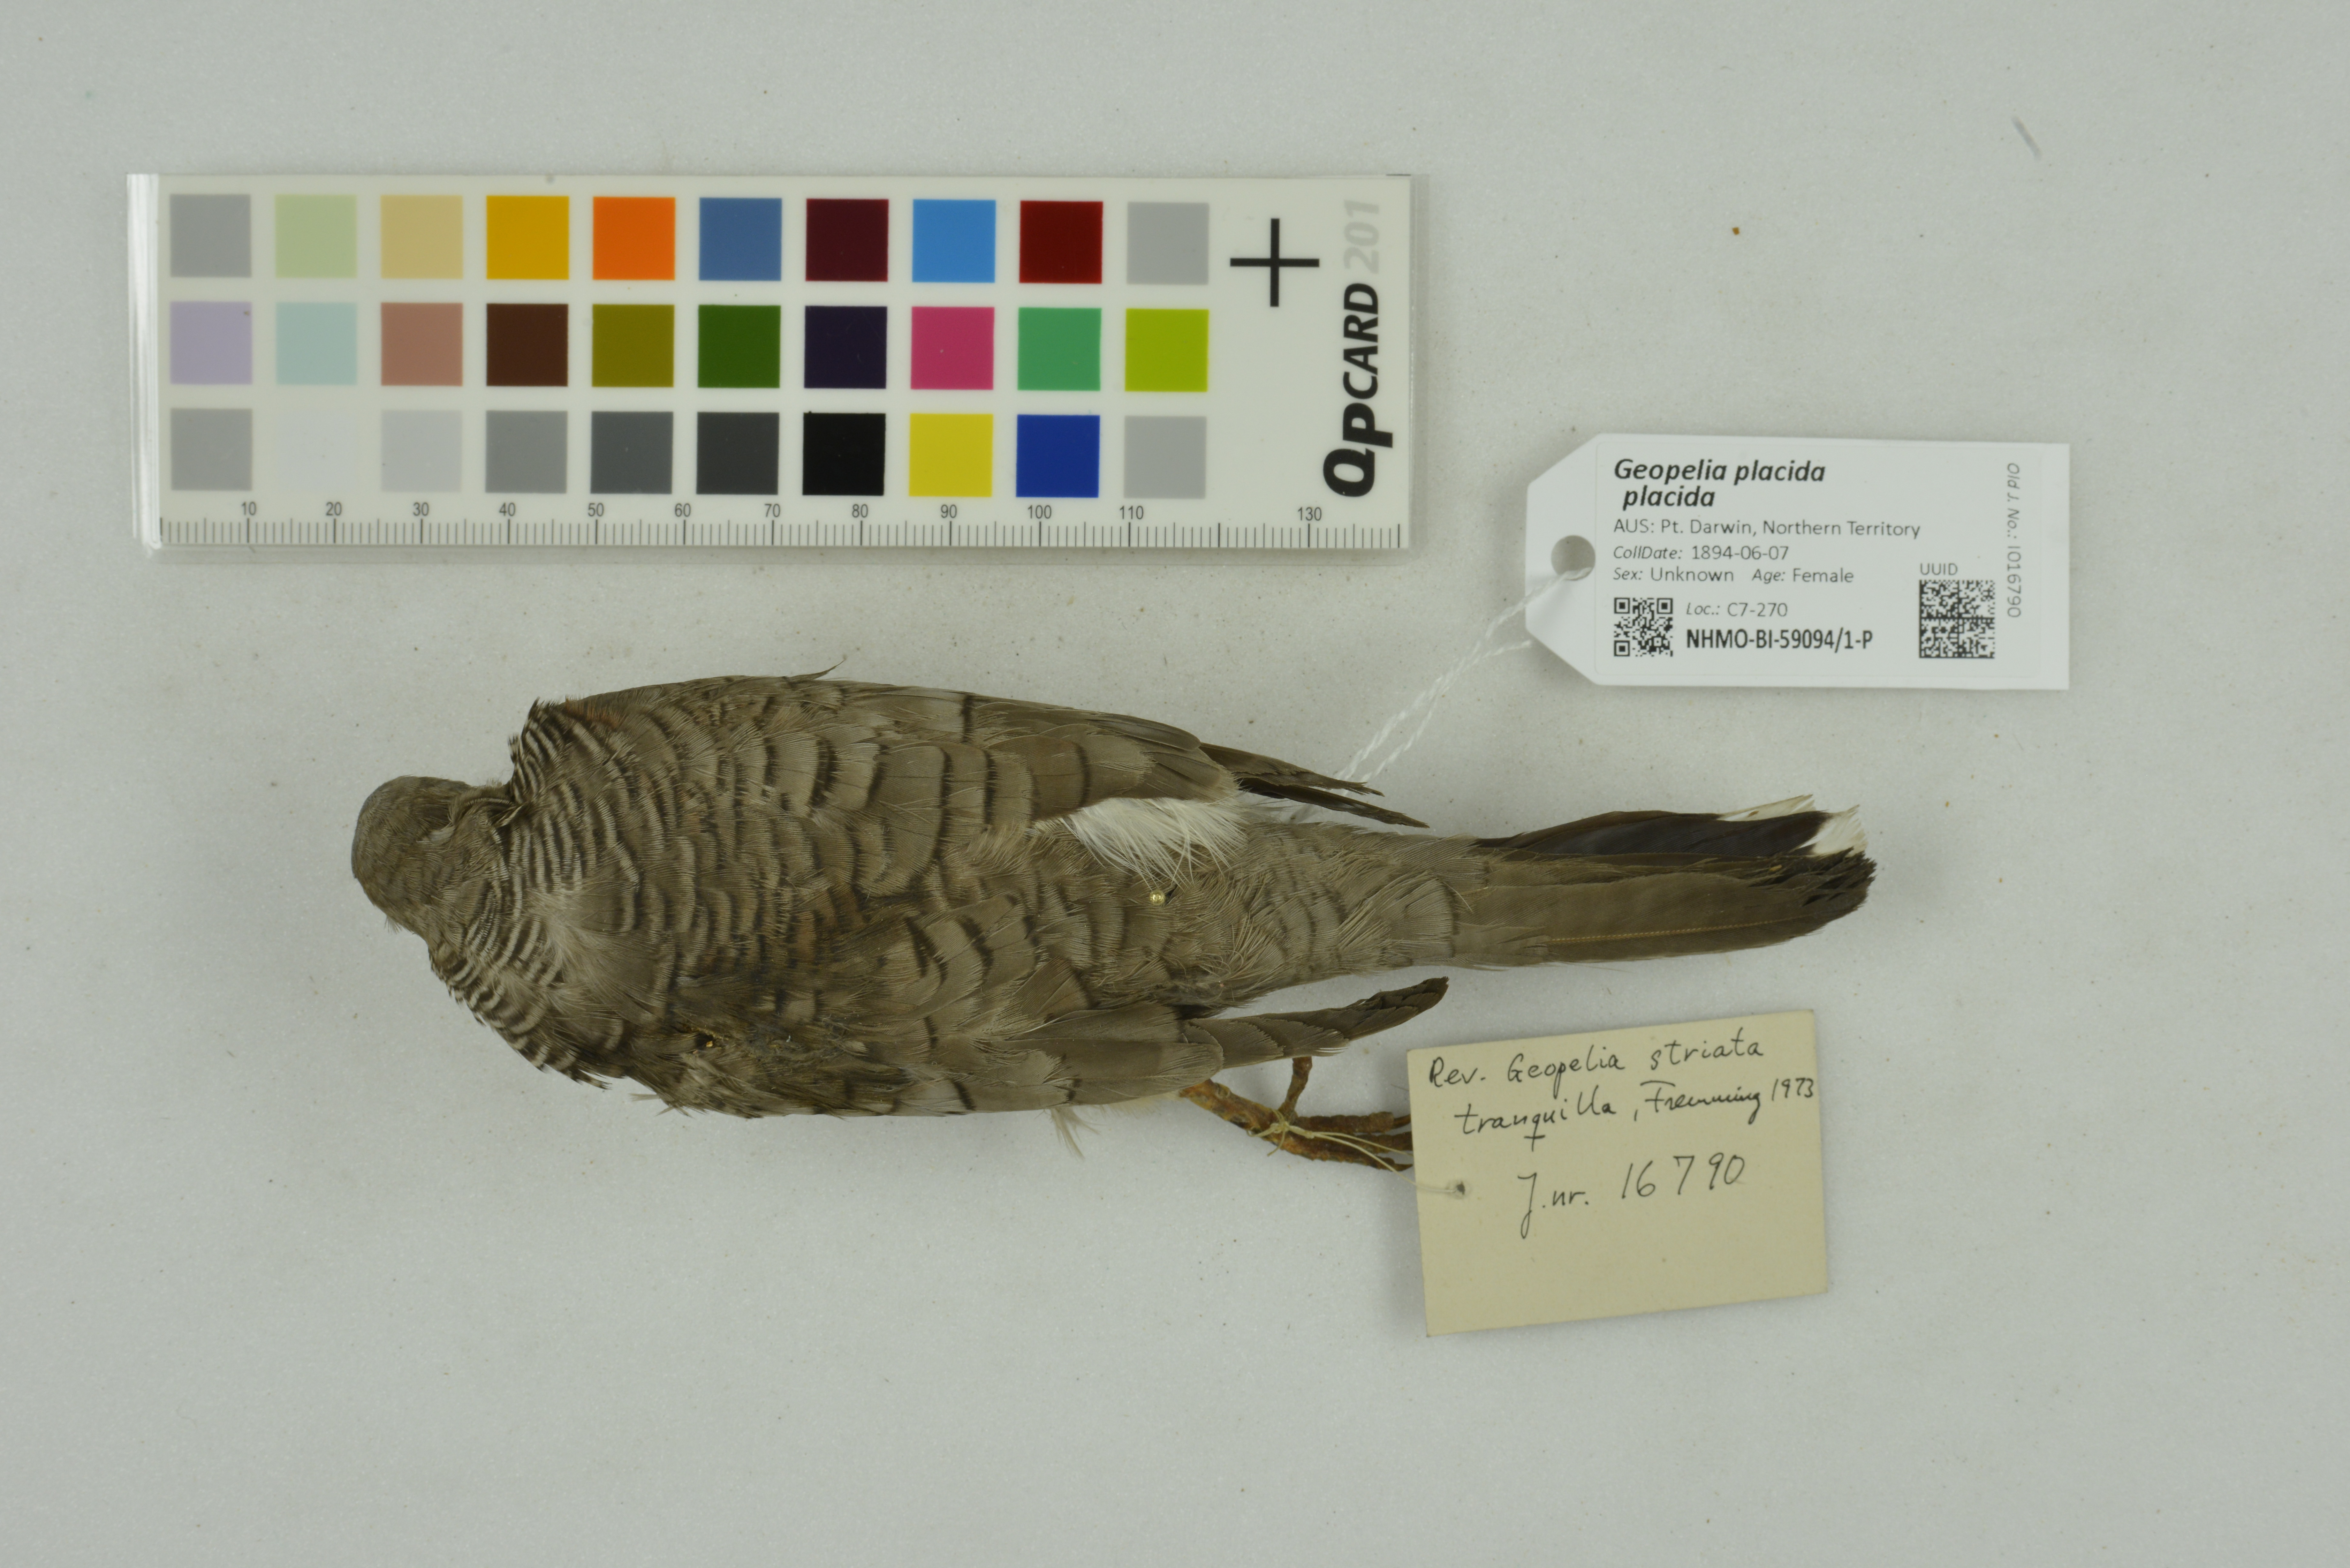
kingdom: Animalia
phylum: Chordata
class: Aves
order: Columbiformes
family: Columbidae
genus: Geopelia
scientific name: Geopelia placida
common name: Peaceful dove
